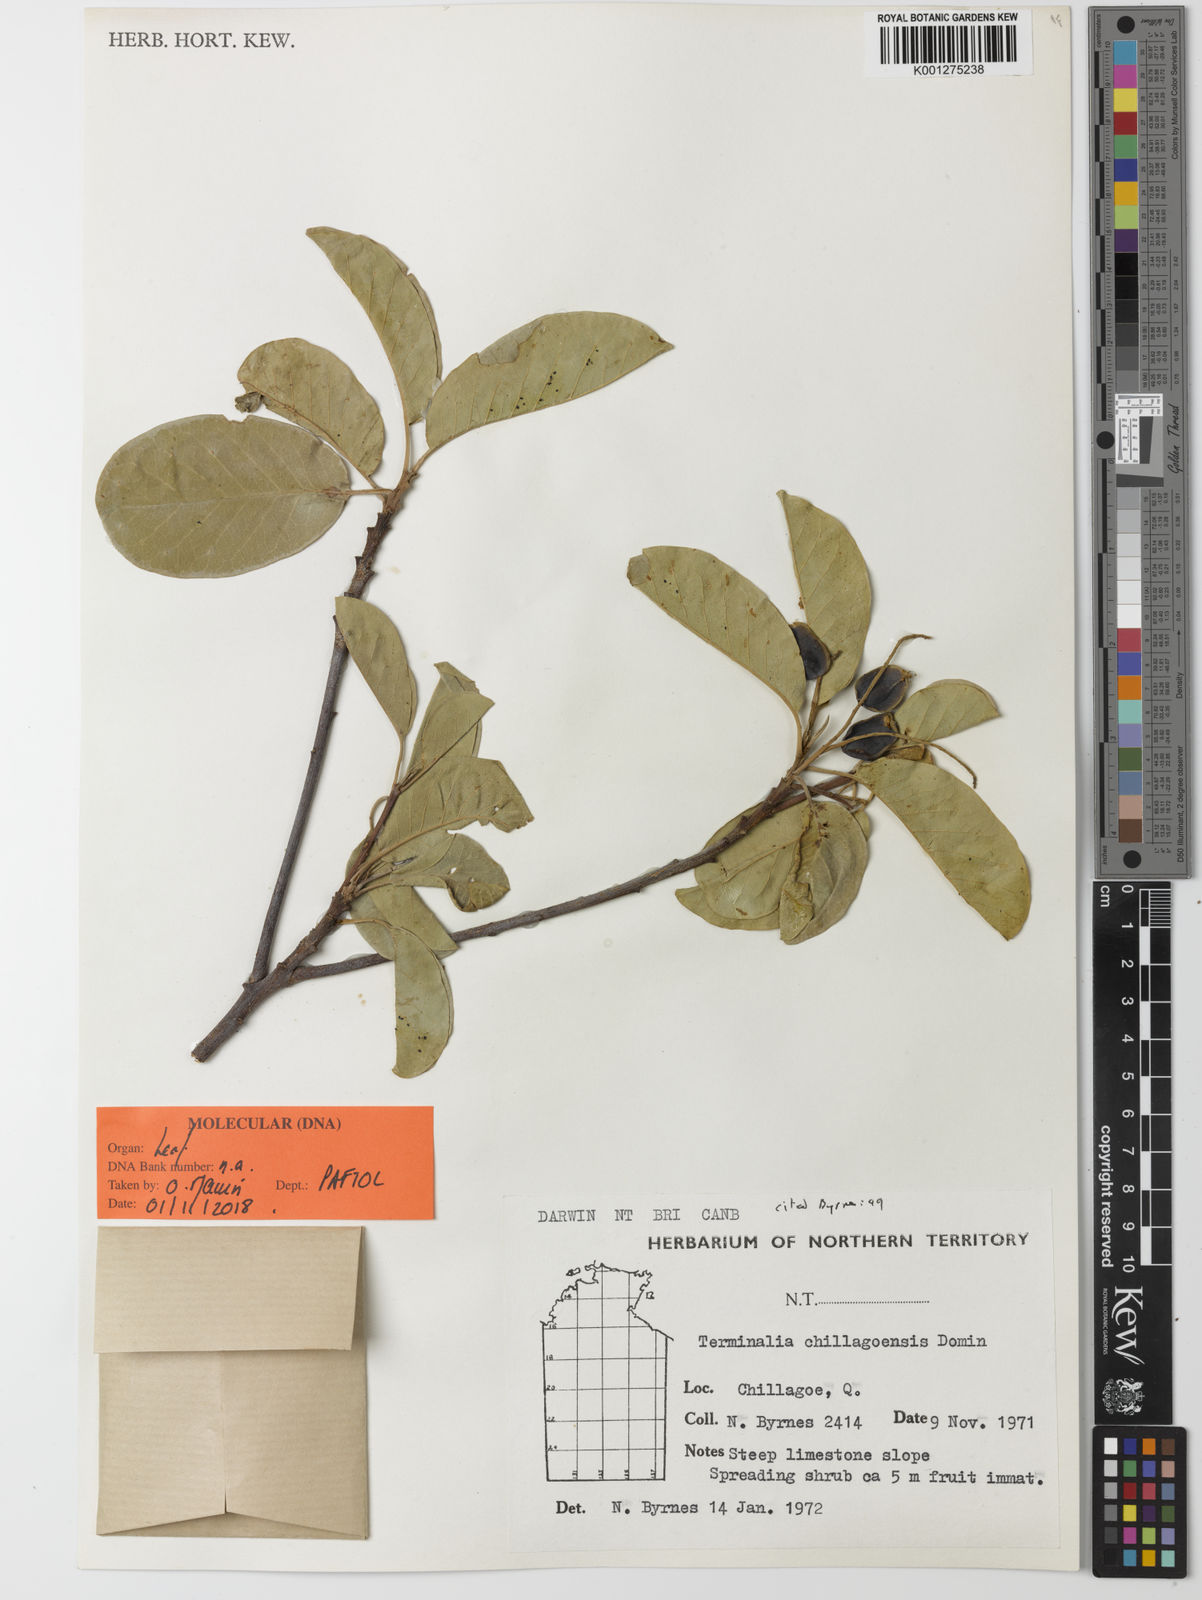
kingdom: Plantae
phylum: Tracheophyta
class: Magnoliopsida
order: Myrtales
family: Combretaceae
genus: Terminalia
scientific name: Terminalia aridicola
